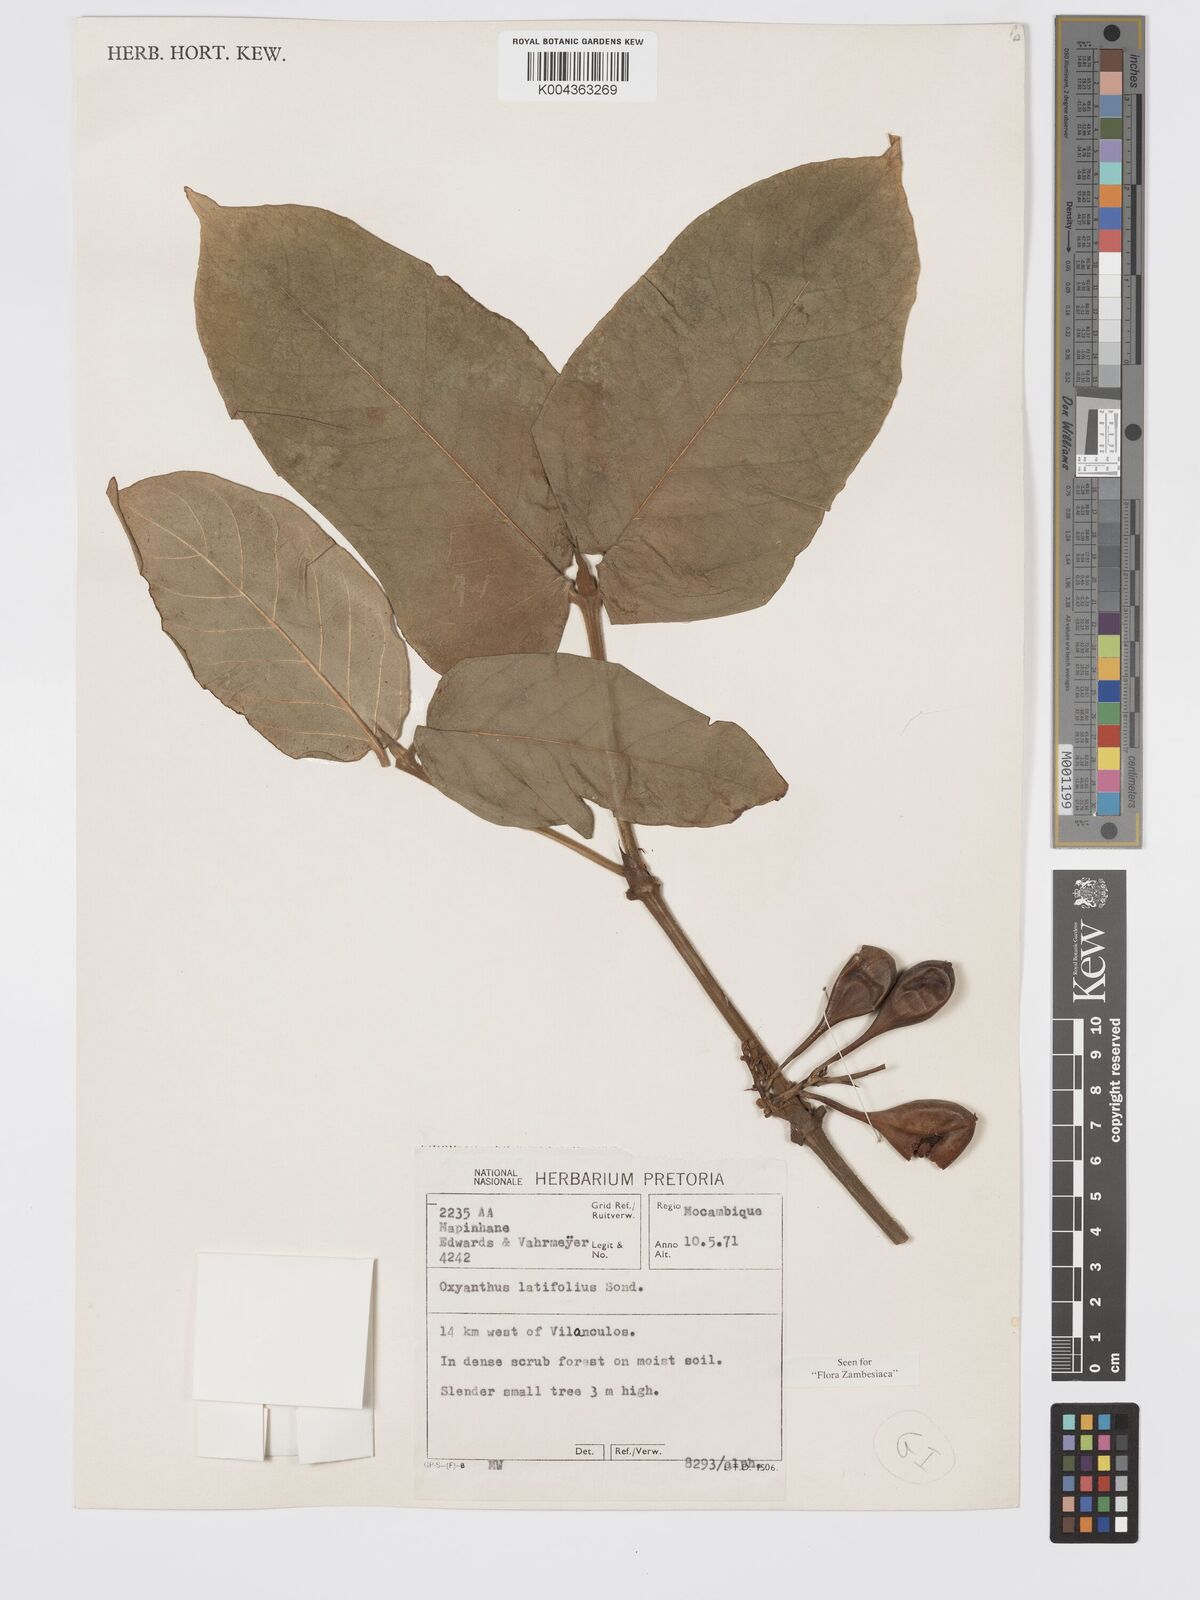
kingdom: Plantae
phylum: Tracheophyta
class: Magnoliopsida
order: Gentianales
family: Rubiaceae
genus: Oxyanthus
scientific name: Oxyanthus latifolius
